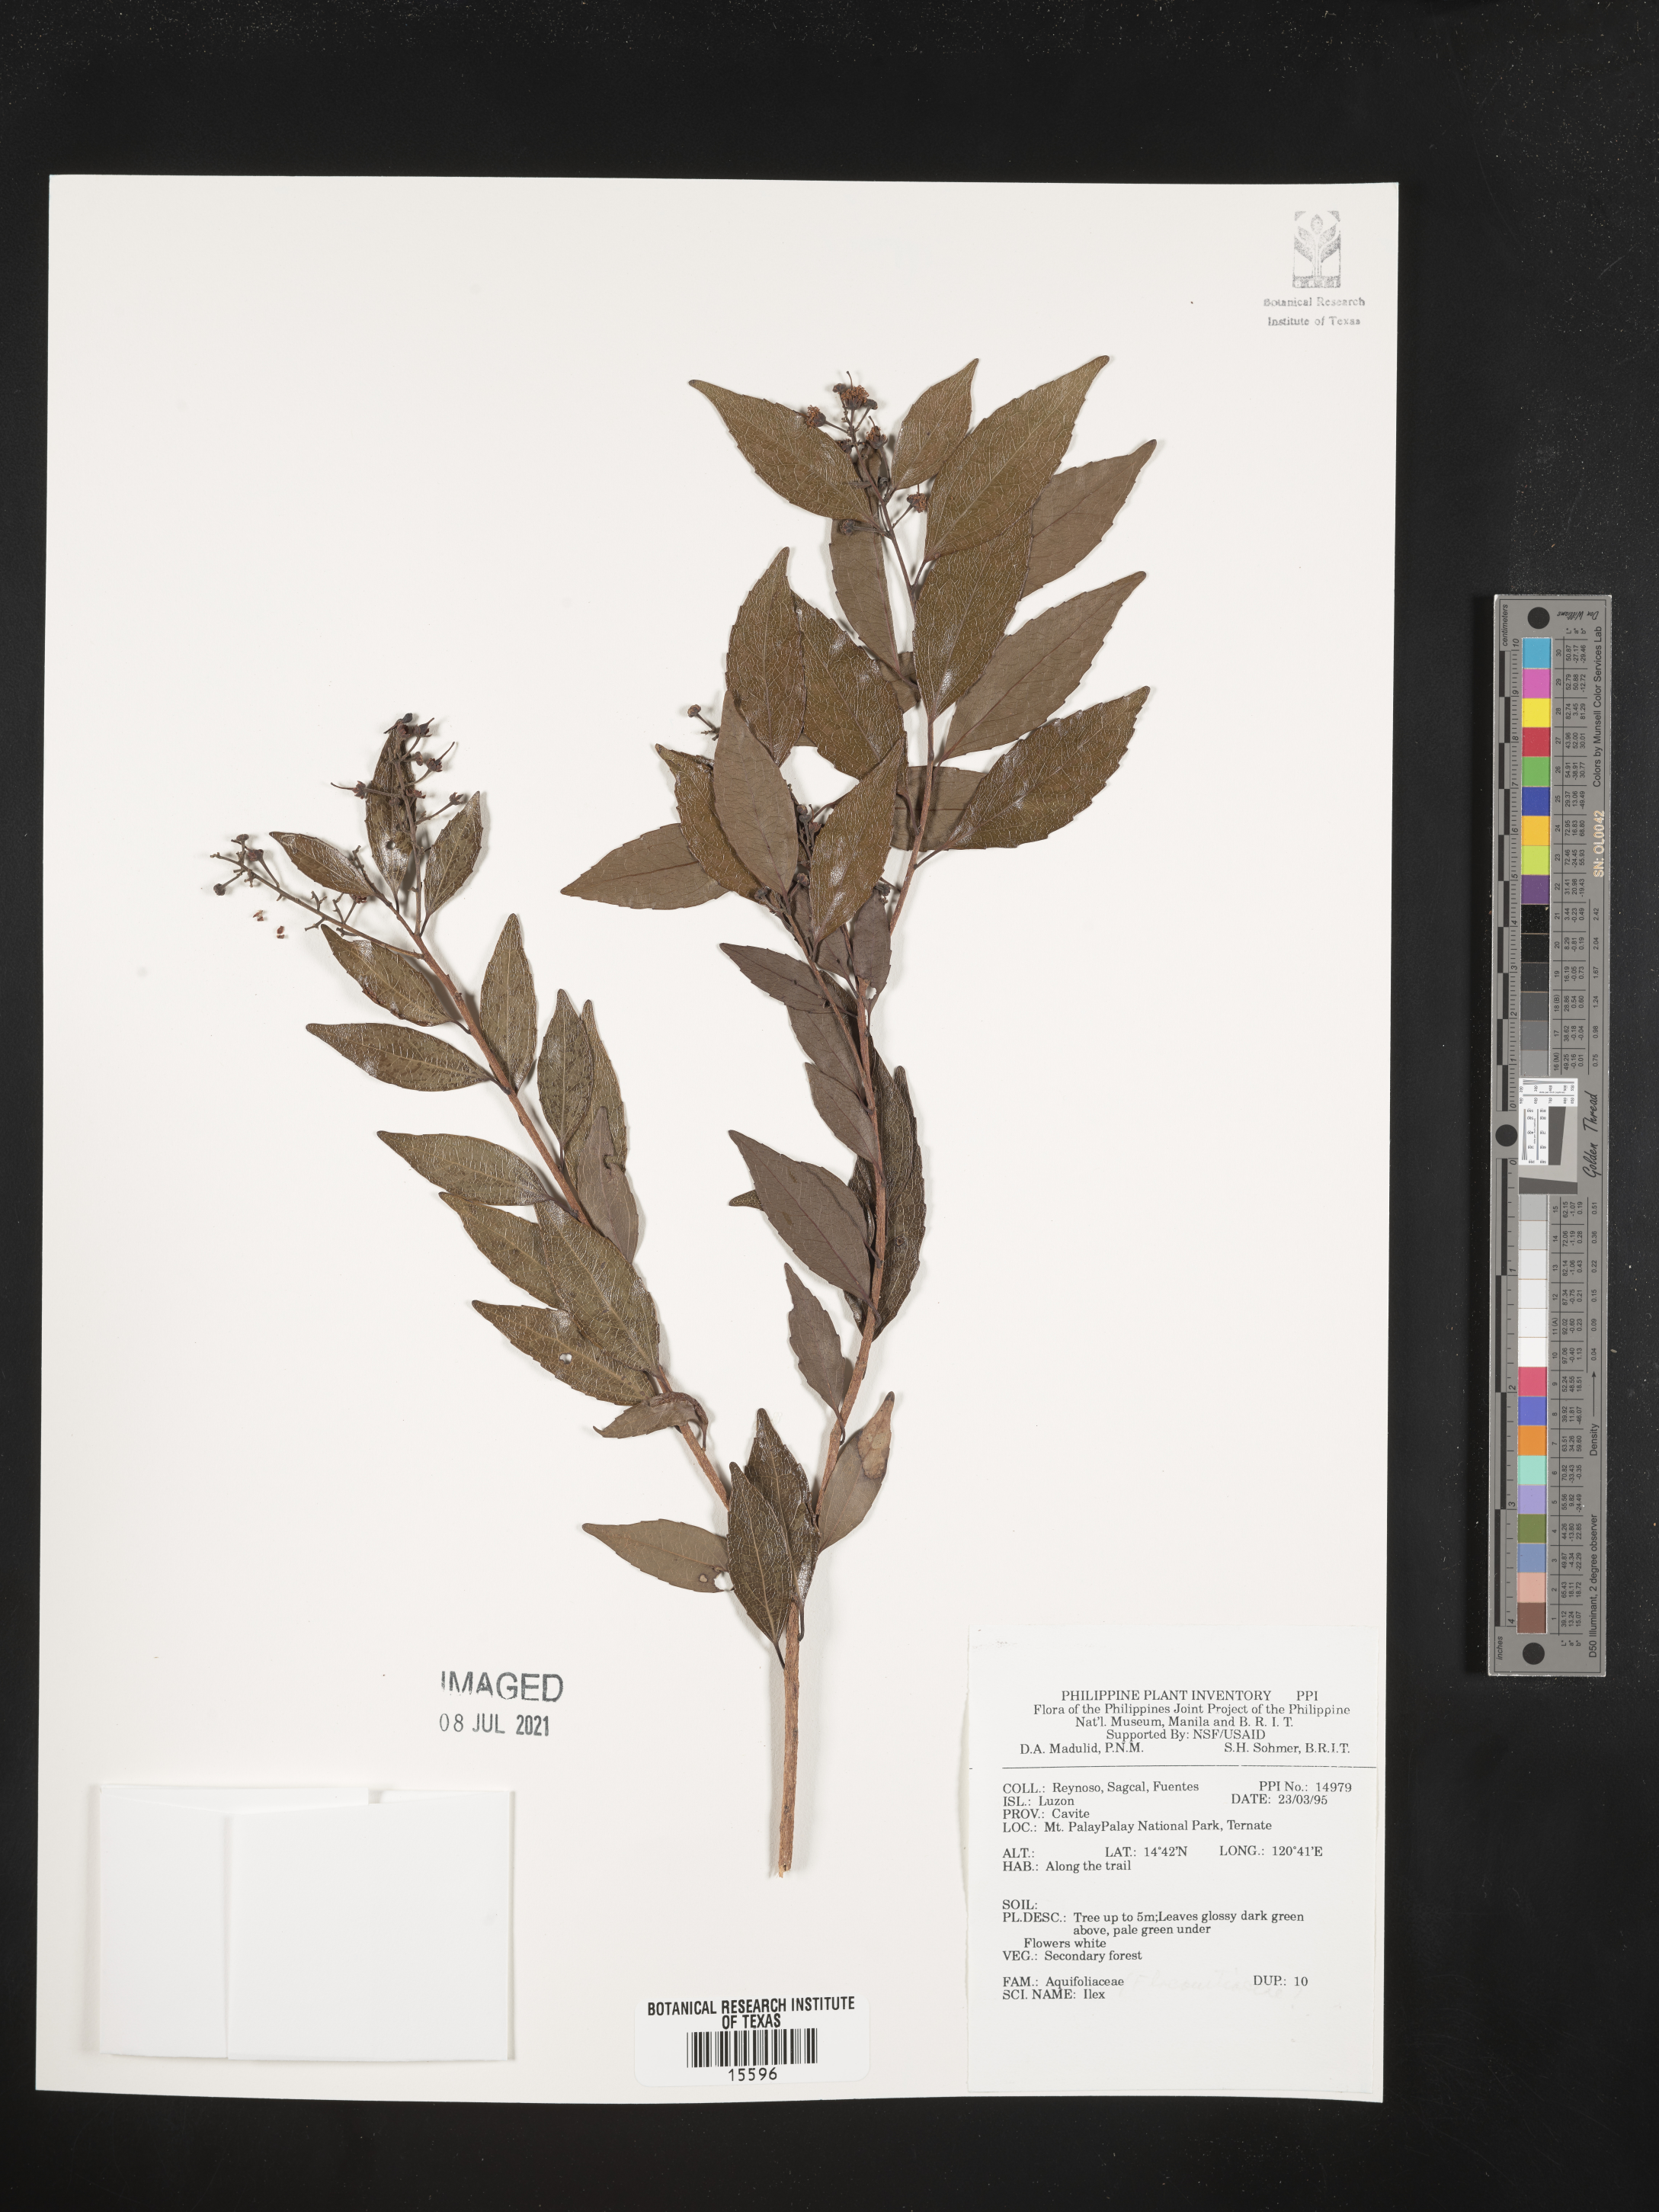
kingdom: Plantae
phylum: Tracheophyta
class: Magnoliopsida
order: Aquifoliales
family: Aquifoliaceae
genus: Ilex
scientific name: Ilex
